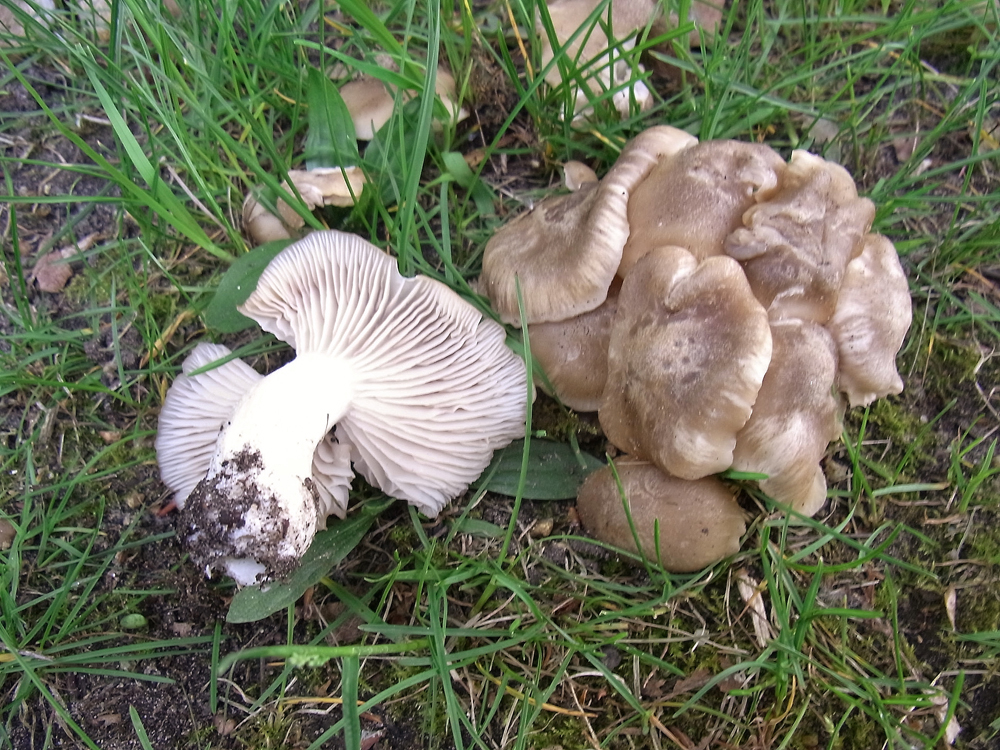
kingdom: Fungi
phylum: Basidiomycota
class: Agaricomycetes
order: Agaricales
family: Entolomataceae
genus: Entoloma
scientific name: Entoloma clypeatum
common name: Shield pinkgill
